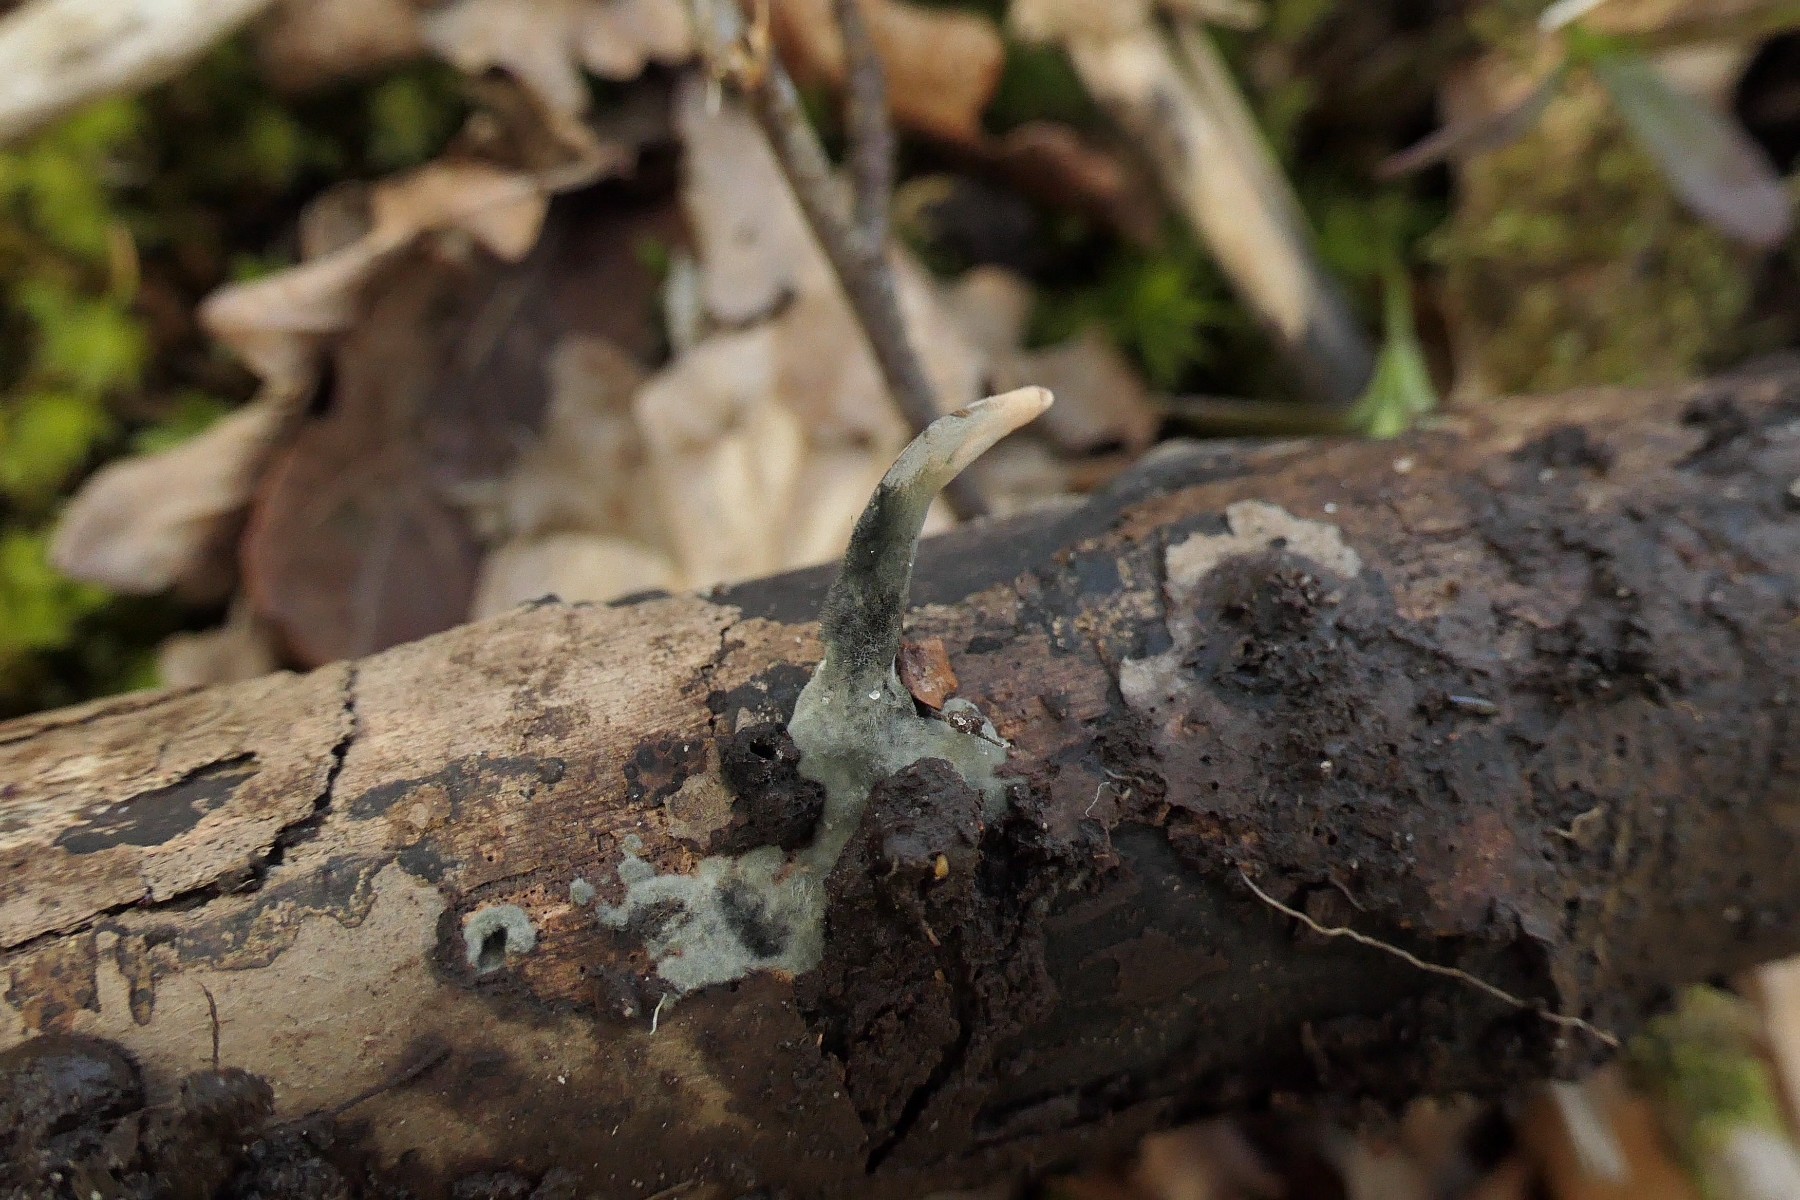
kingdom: Fungi
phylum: Ascomycota
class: Sordariomycetes
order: Xylariales
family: Xylariaceae
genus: Xylaria
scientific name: Xylaria longipes
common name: slank stødsvamp
